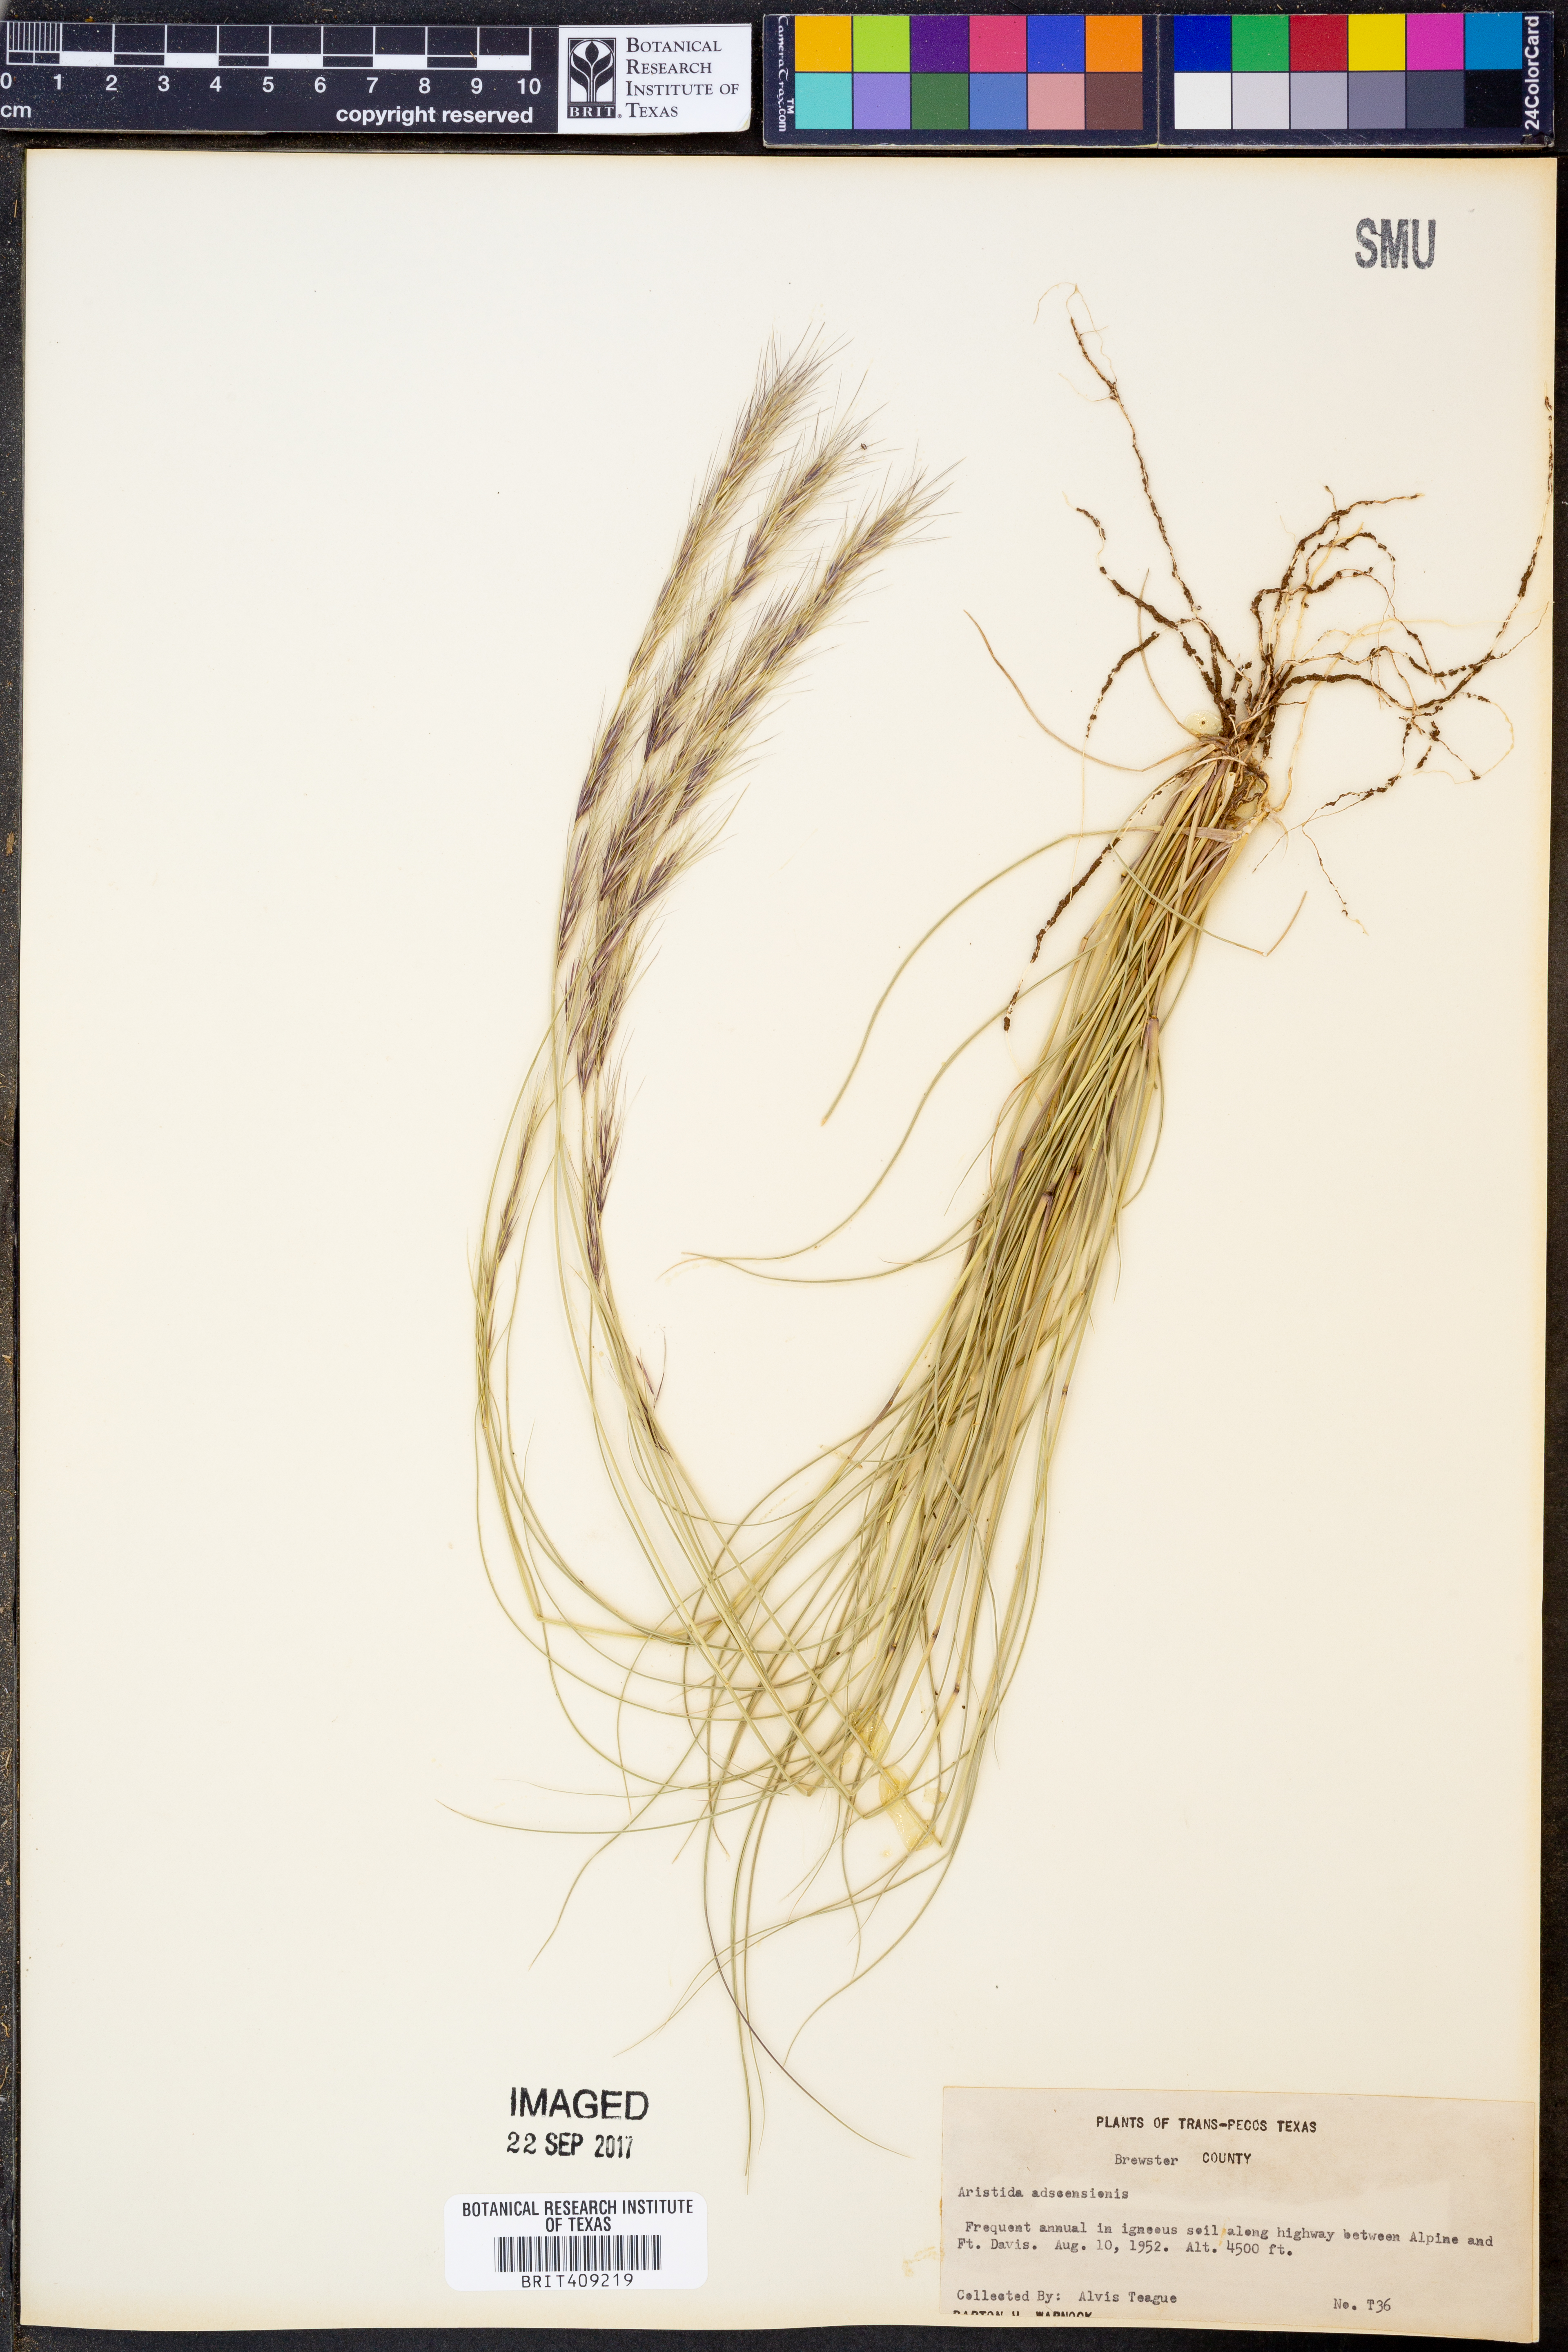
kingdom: Plantae
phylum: Tracheophyta
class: Liliopsida
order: Poales
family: Poaceae
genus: Aristida
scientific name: Aristida adscensionis
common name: Sixweeks threeawn
